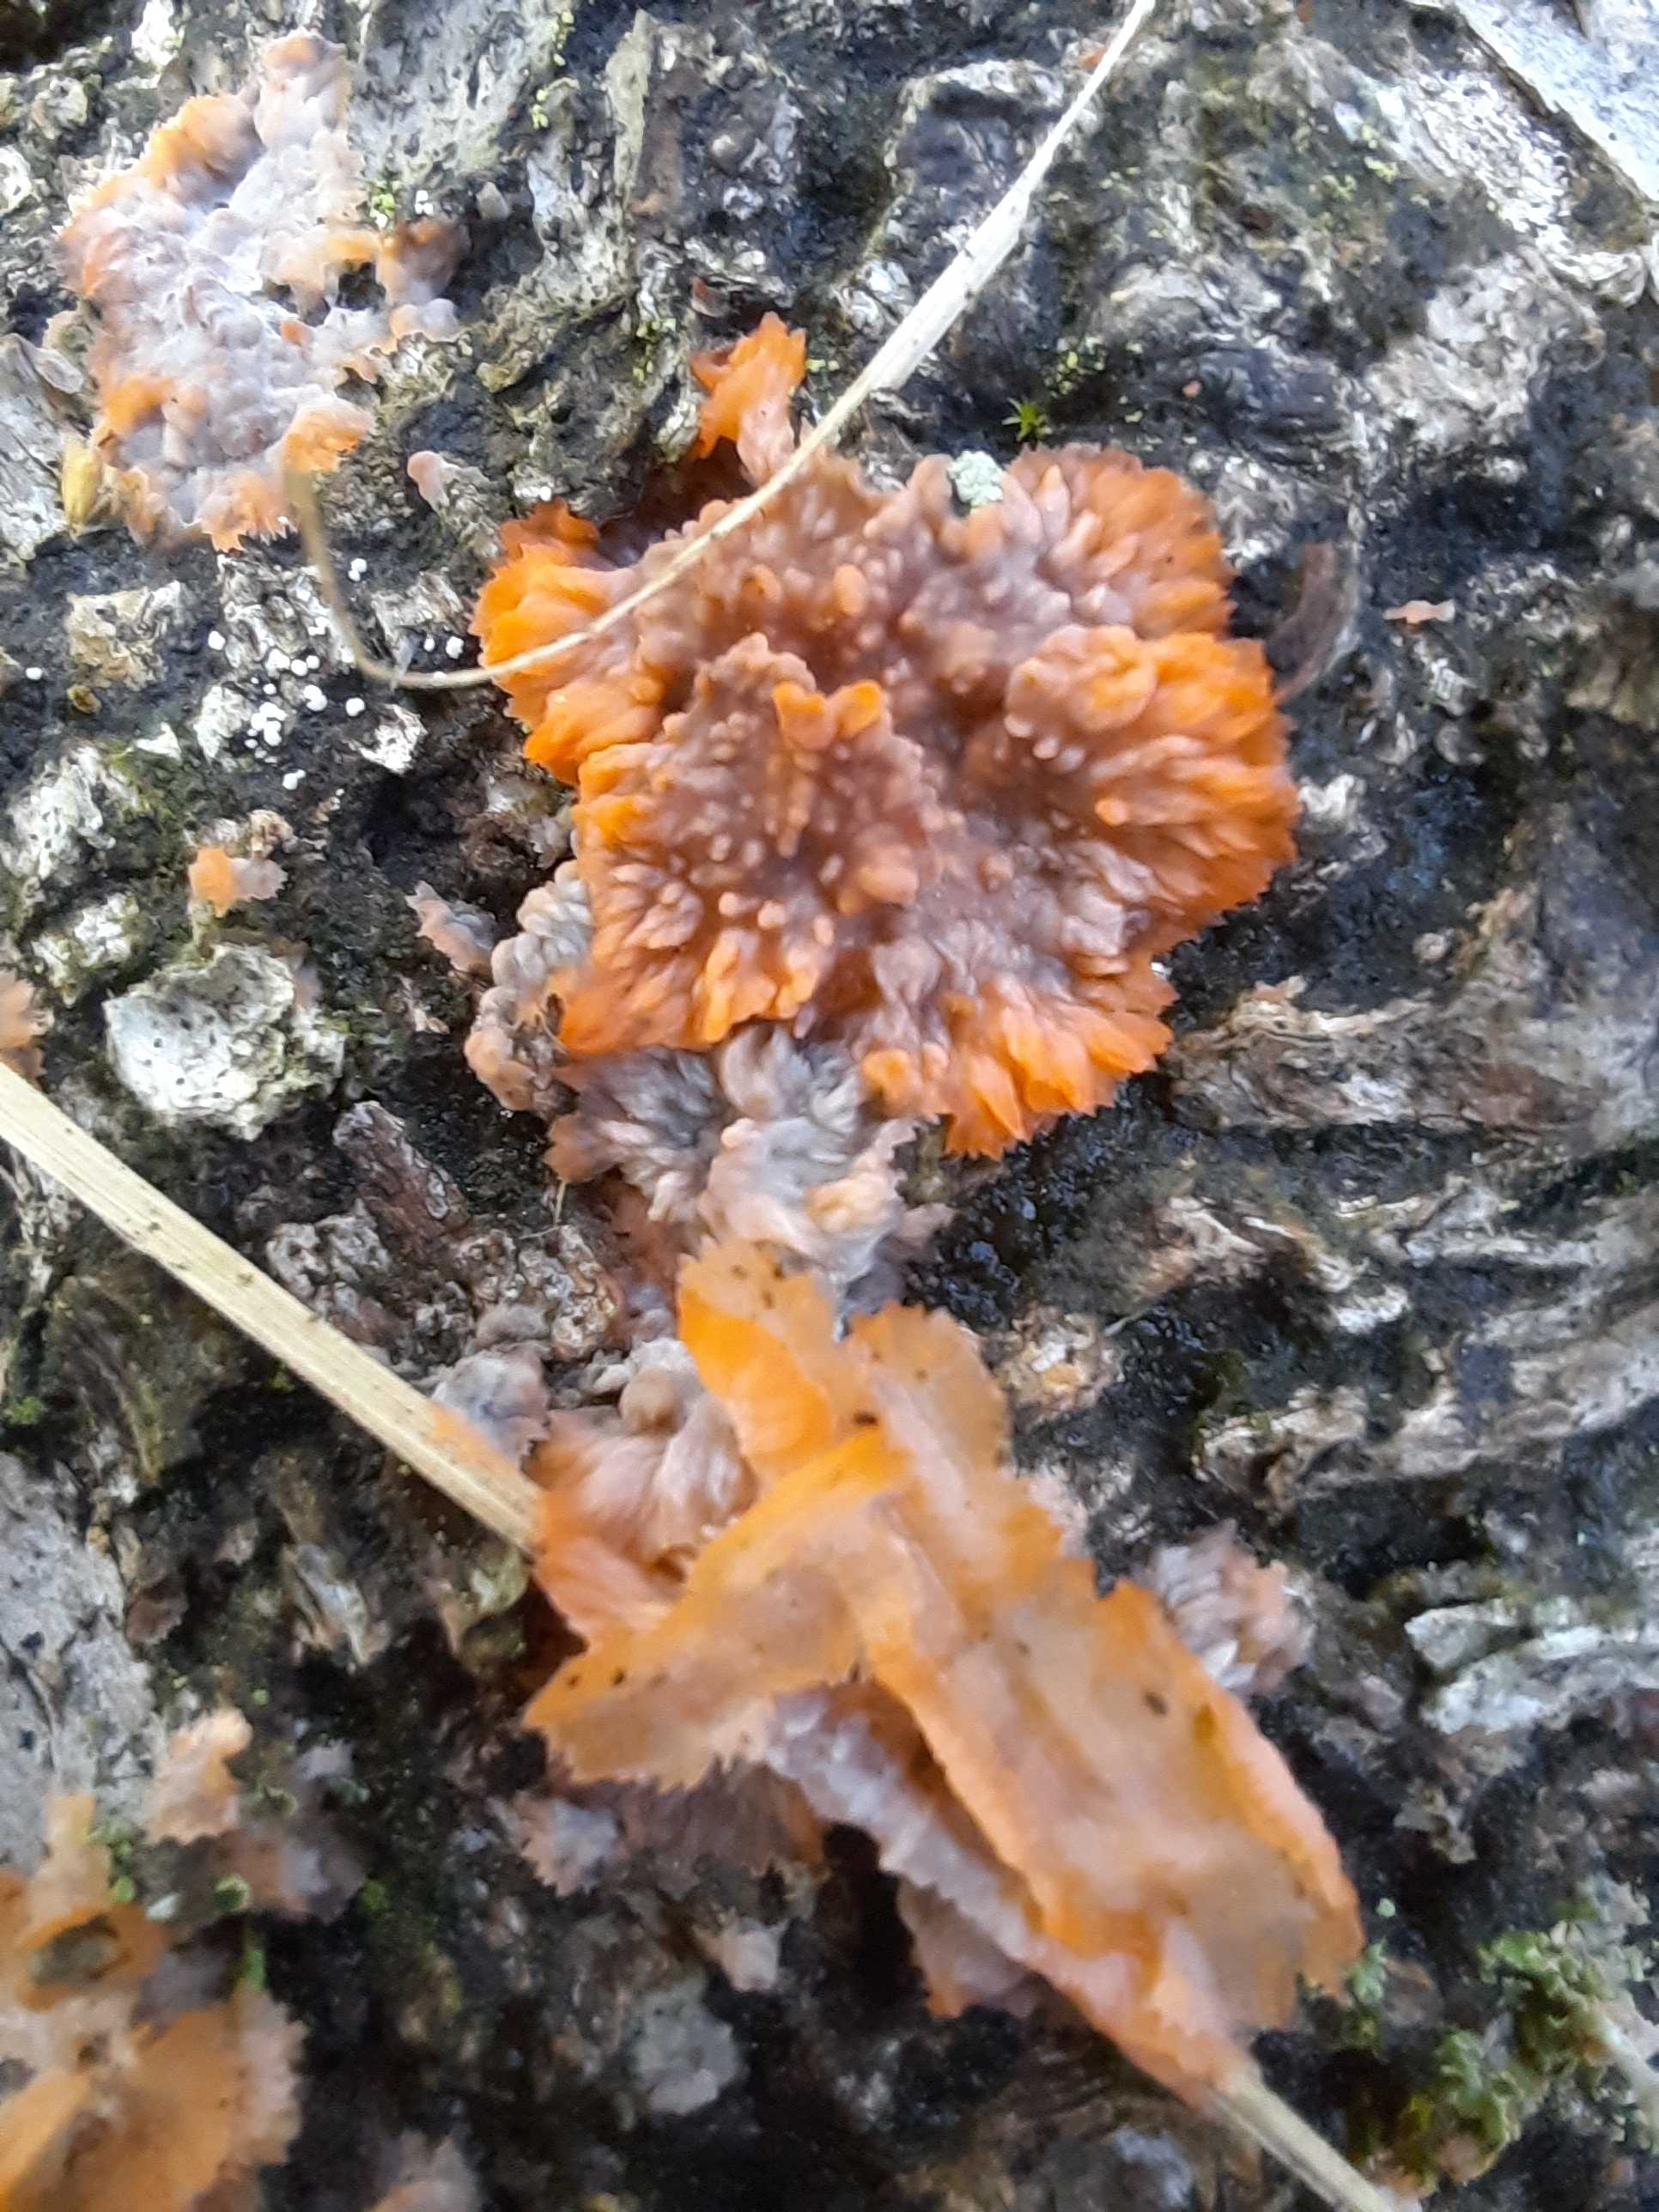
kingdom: Fungi
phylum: Basidiomycota
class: Agaricomycetes
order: Polyporales
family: Meruliaceae
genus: Phlebia
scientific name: Phlebia radiata
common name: stråle-åresvamp
